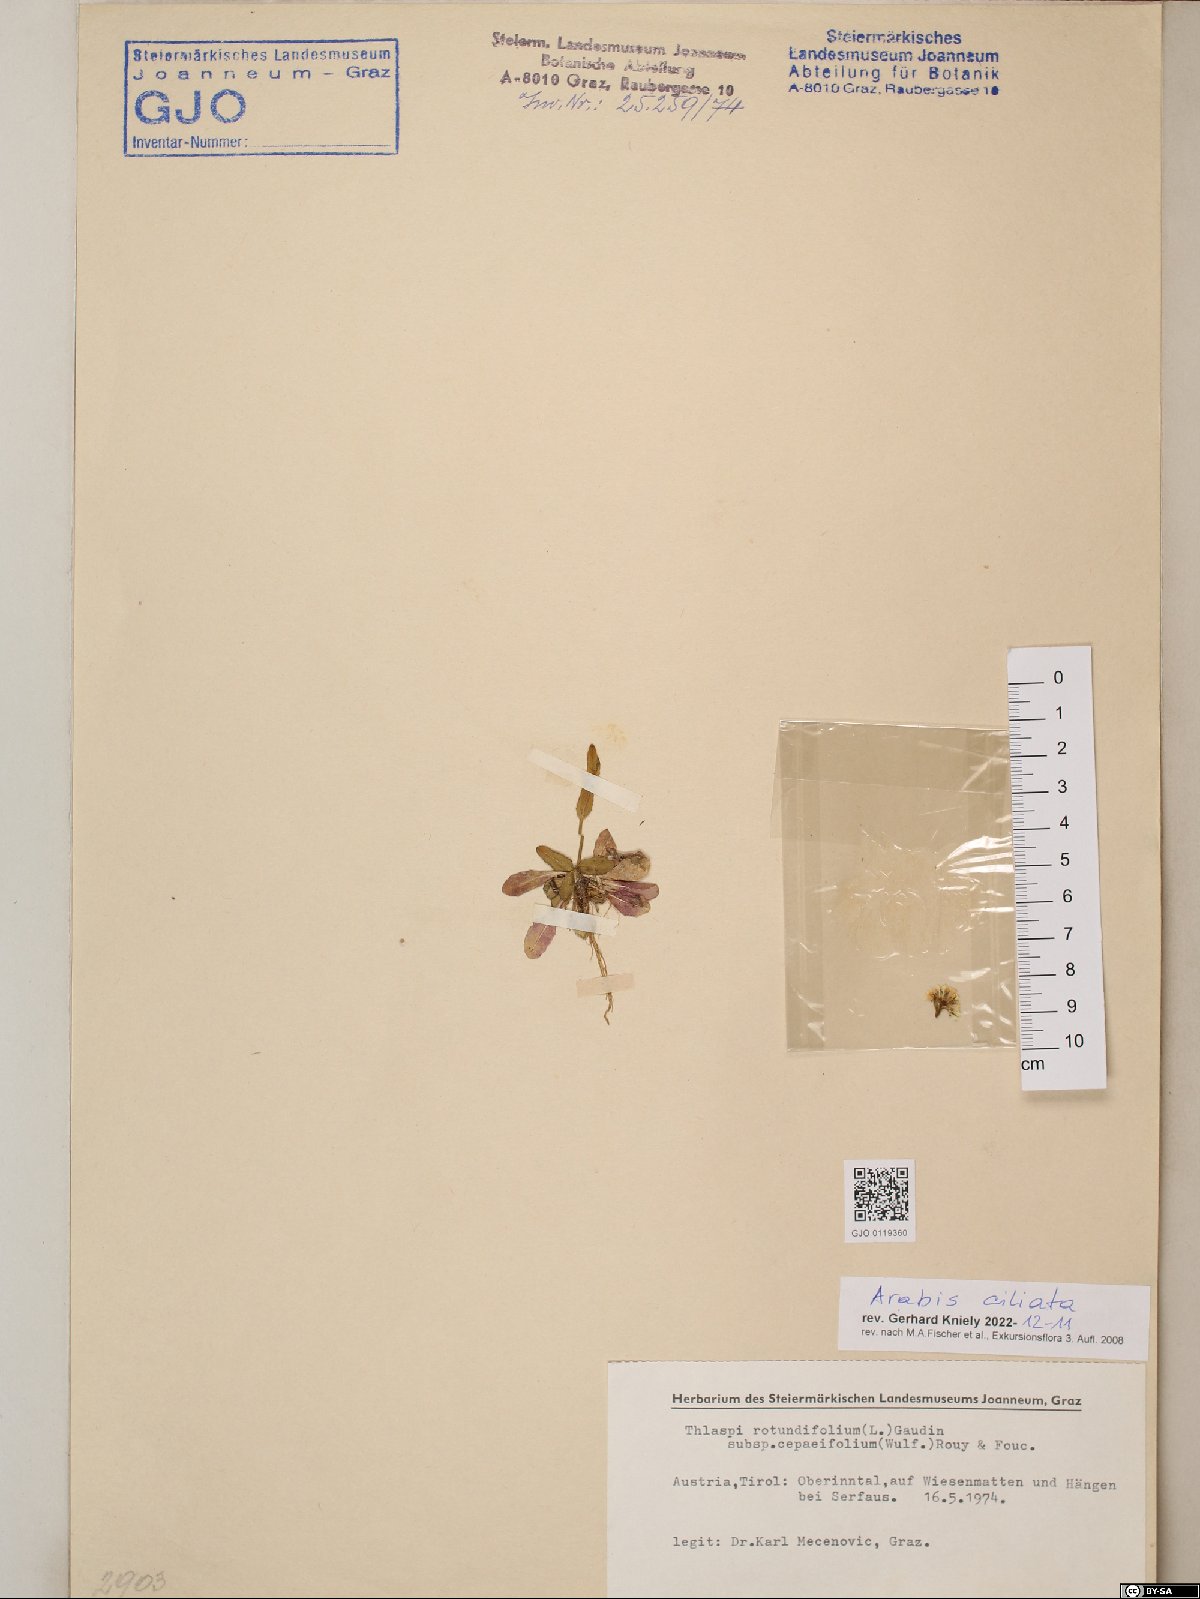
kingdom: Plantae
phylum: Tracheophyta
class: Magnoliopsida
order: Brassicales
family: Brassicaceae
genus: Arabis
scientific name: Arabis ciliata
